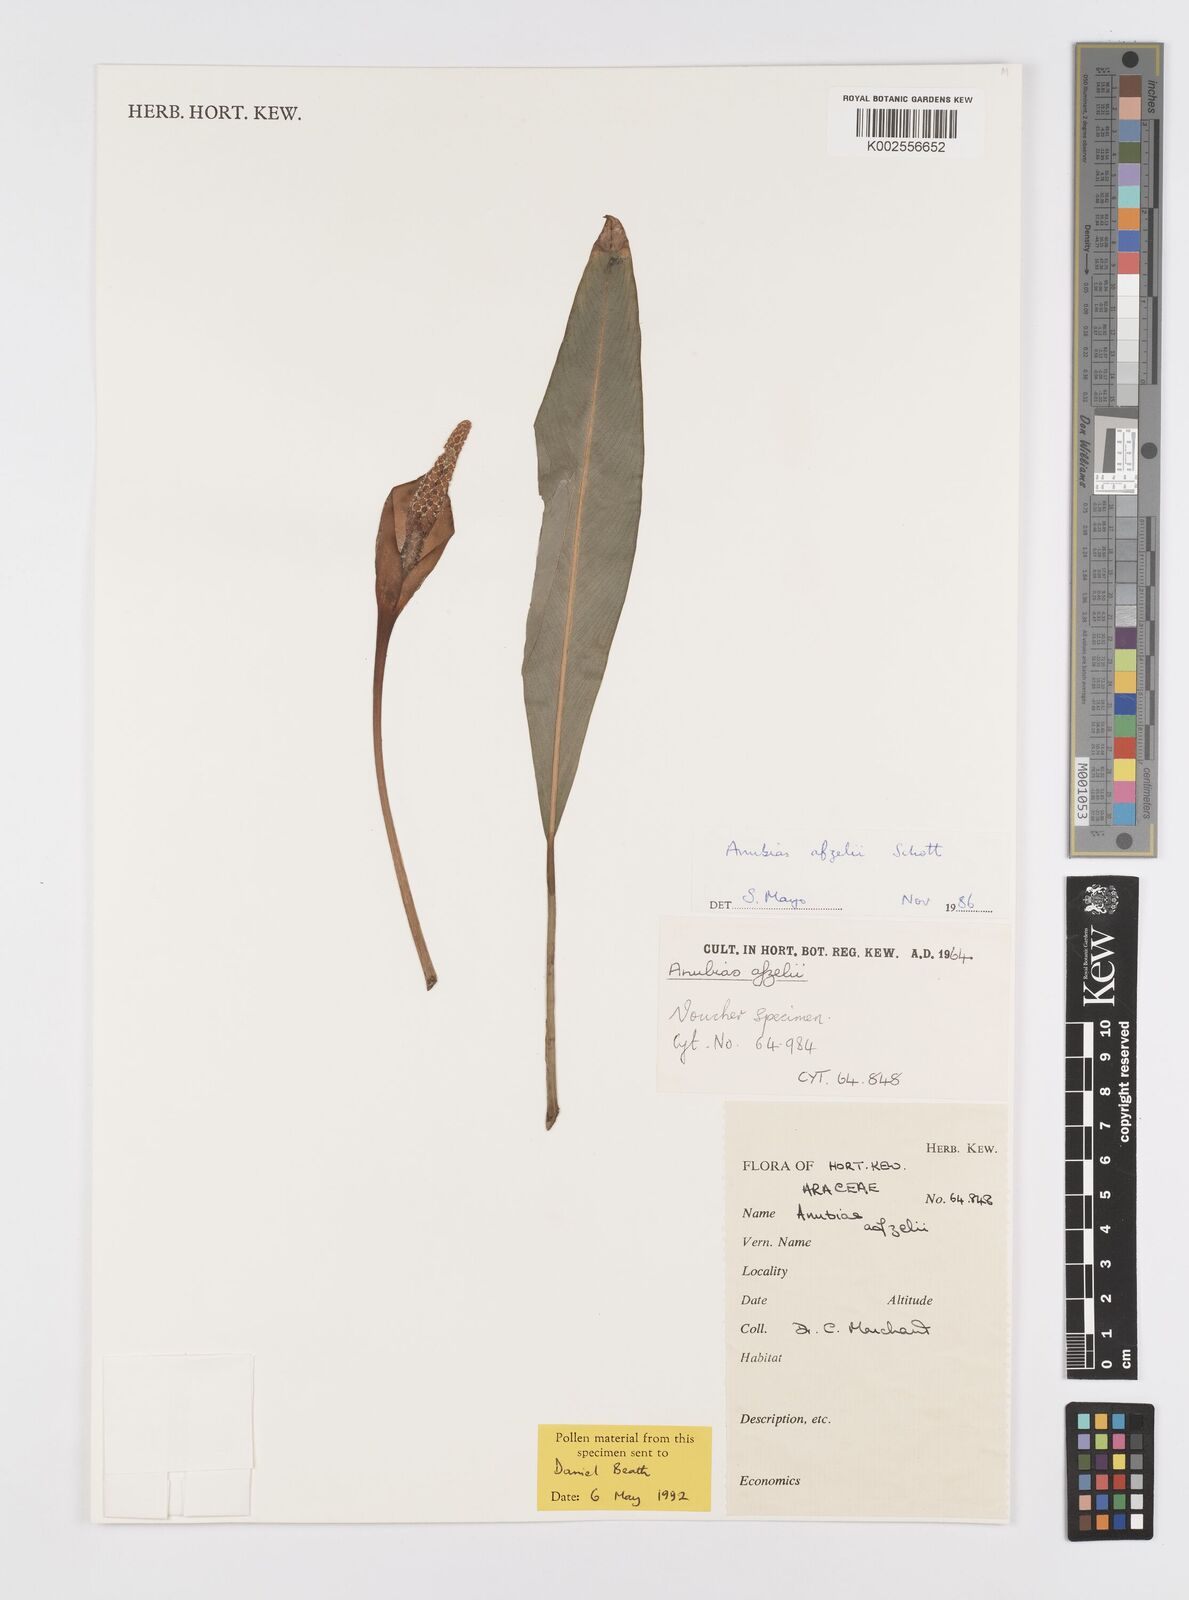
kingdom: Plantae
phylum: Tracheophyta
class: Liliopsida
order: Alismatales
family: Araceae
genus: Anubias
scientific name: Anubias afzelii
